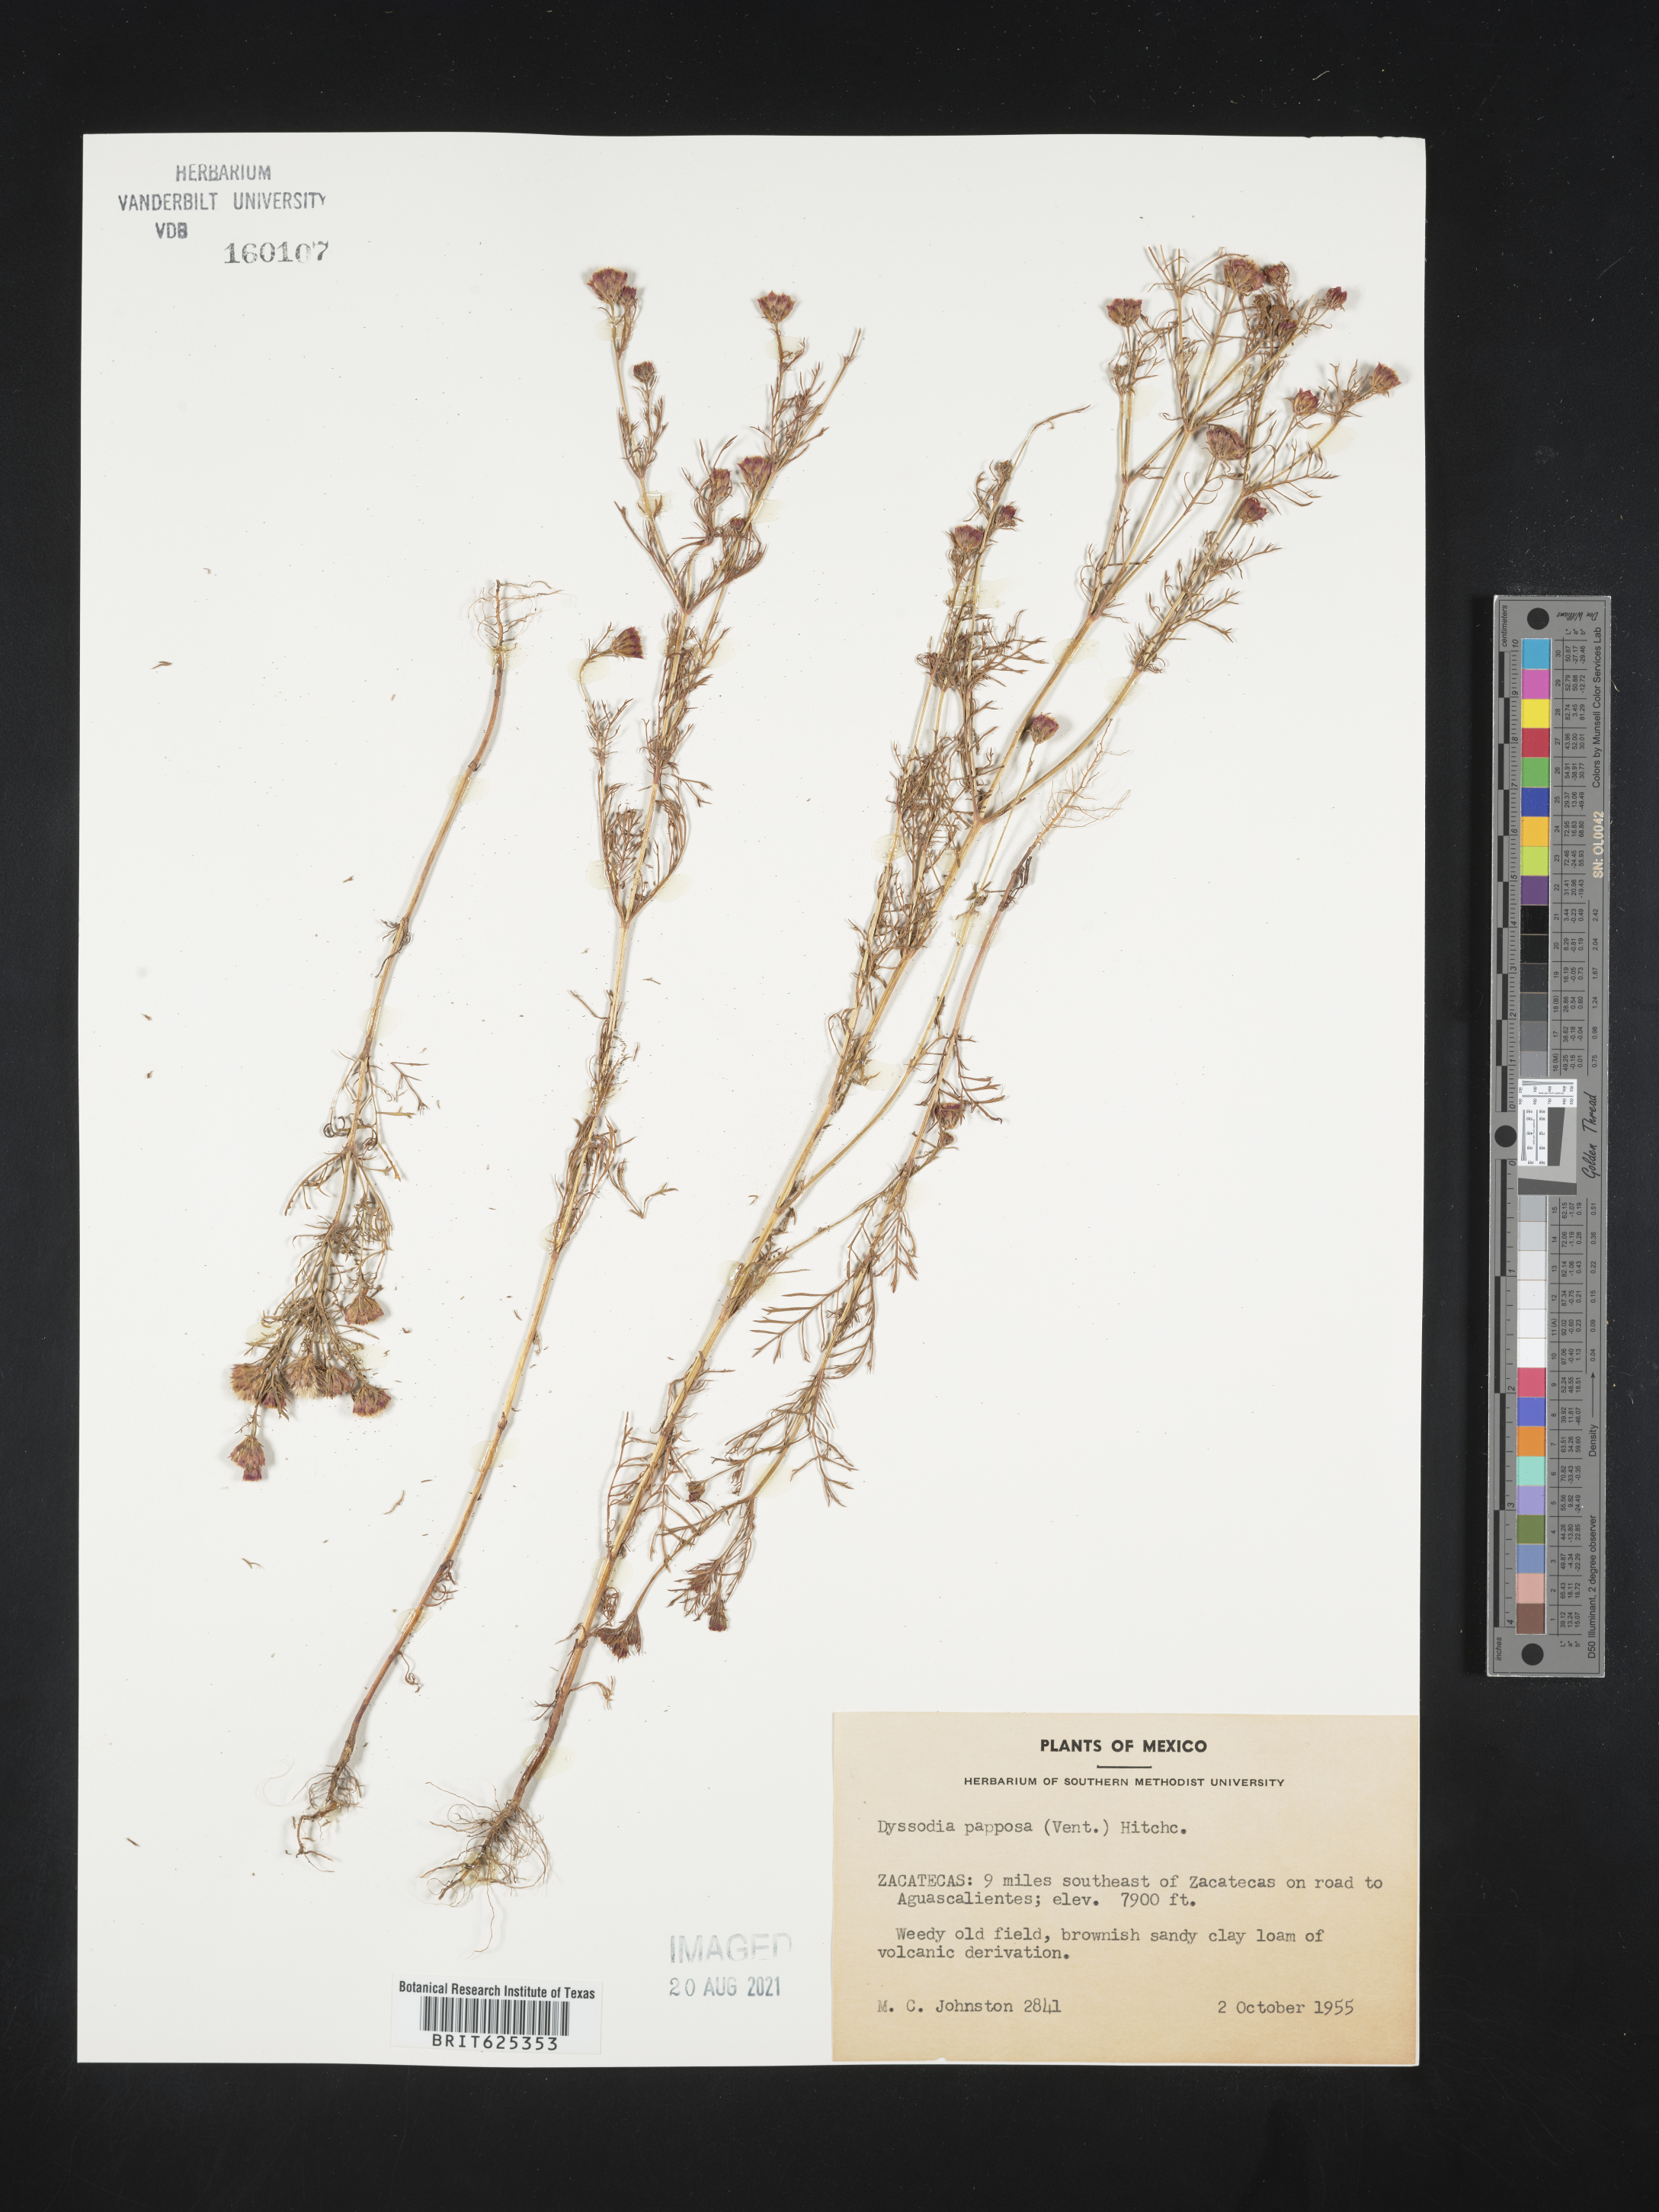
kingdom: Plantae
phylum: Tracheophyta
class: Magnoliopsida
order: Asterales
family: Asteraceae
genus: Dyssodia
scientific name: Dyssodia
